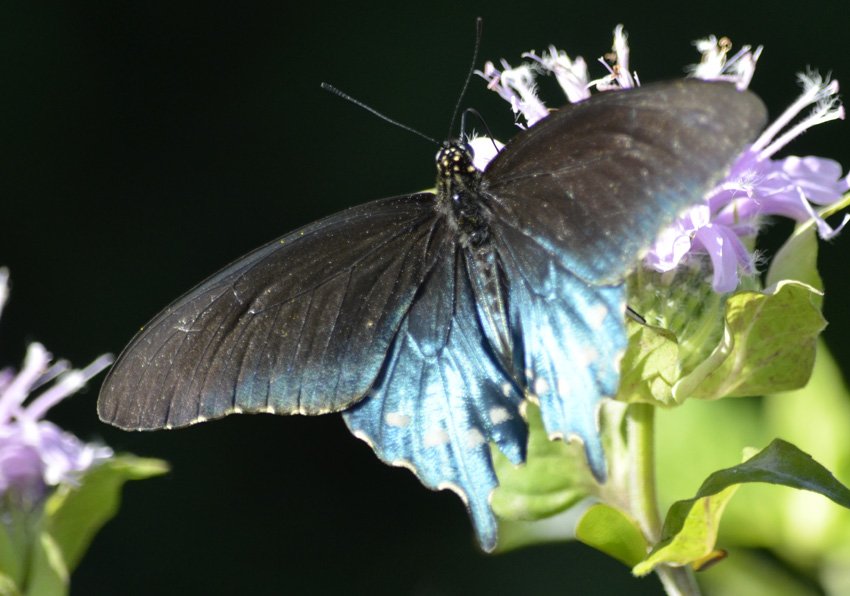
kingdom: Animalia
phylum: Arthropoda
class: Insecta
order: Lepidoptera
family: Papilionidae
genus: Battus
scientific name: Battus philenor
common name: Pipevine Swallowtail
